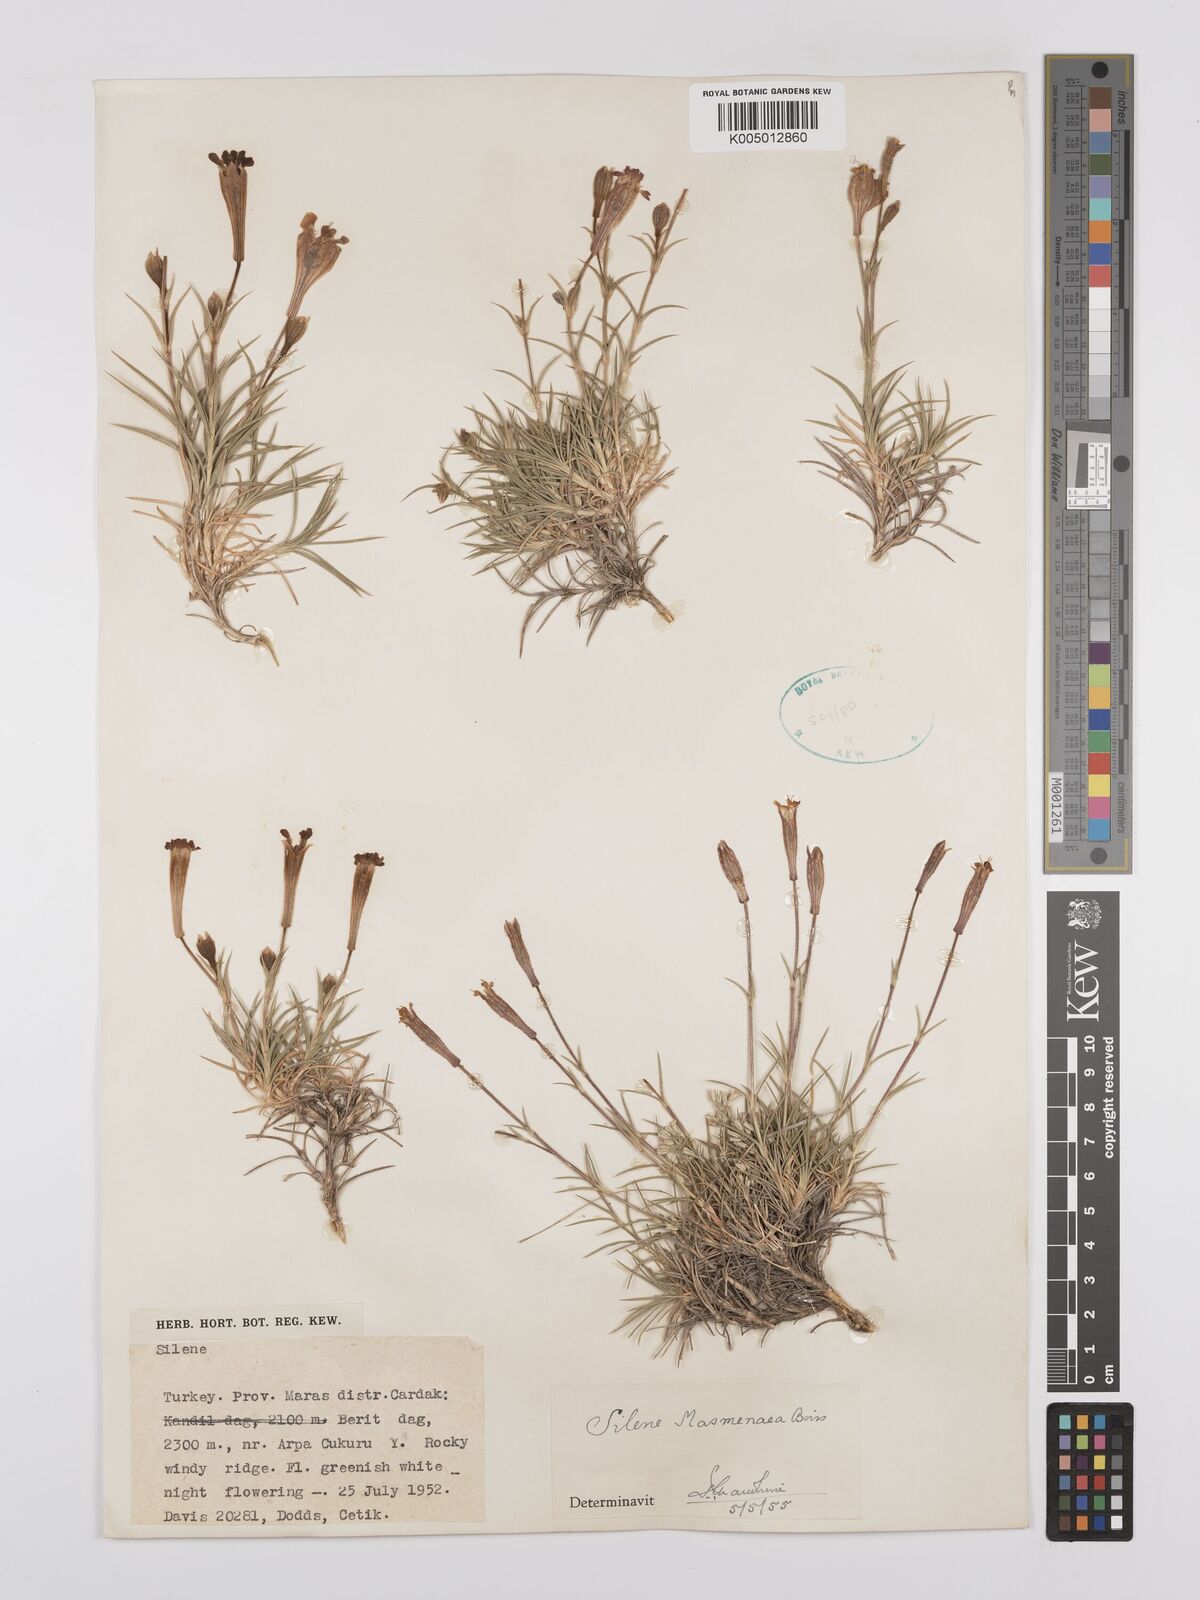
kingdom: Plantae
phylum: Tracheophyta
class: Magnoliopsida
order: Caryophyllales
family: Caryophyllaceae
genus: Silene
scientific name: Silene caryophylloides
